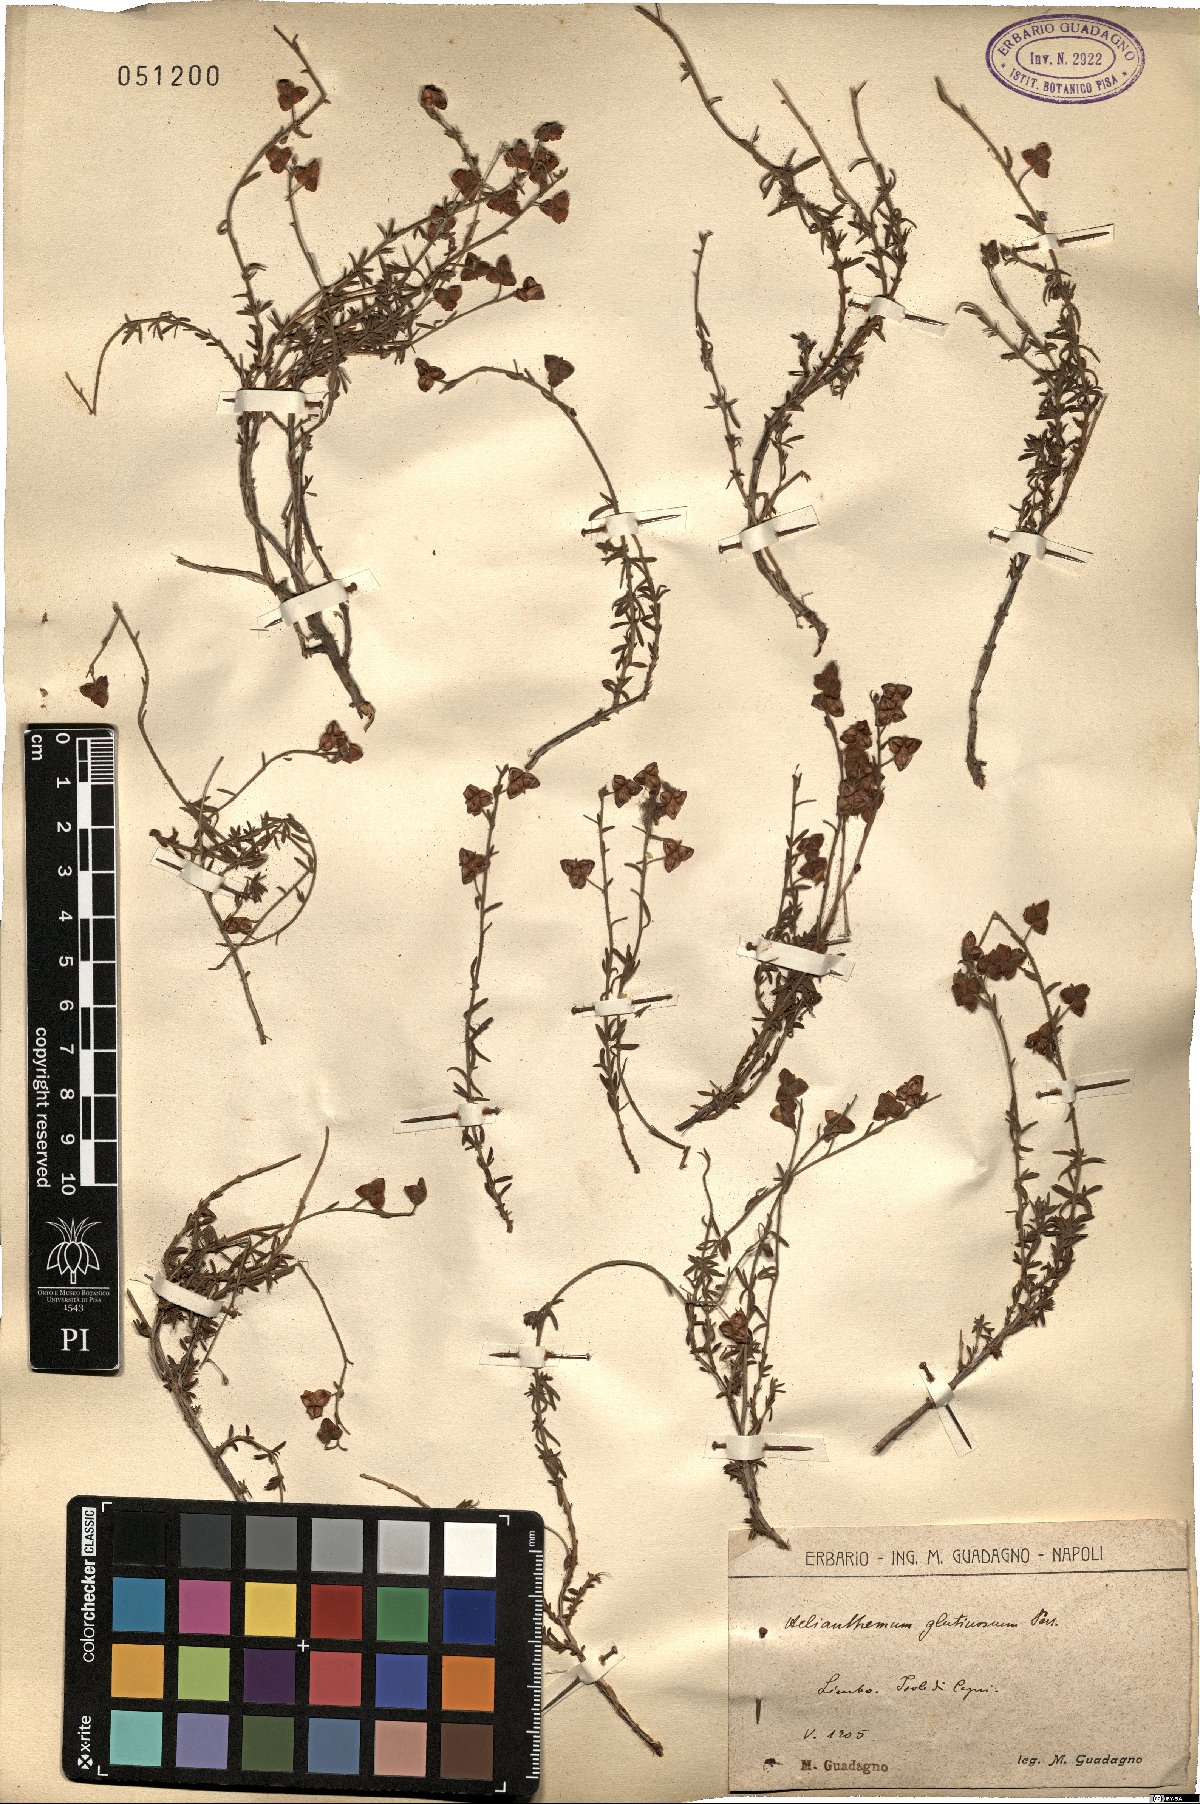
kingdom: Plantae
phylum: Tracheophyta
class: Magnoliopsida
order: Malvales
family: Cistaceae
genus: Fumana
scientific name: Fumana thymifolia
